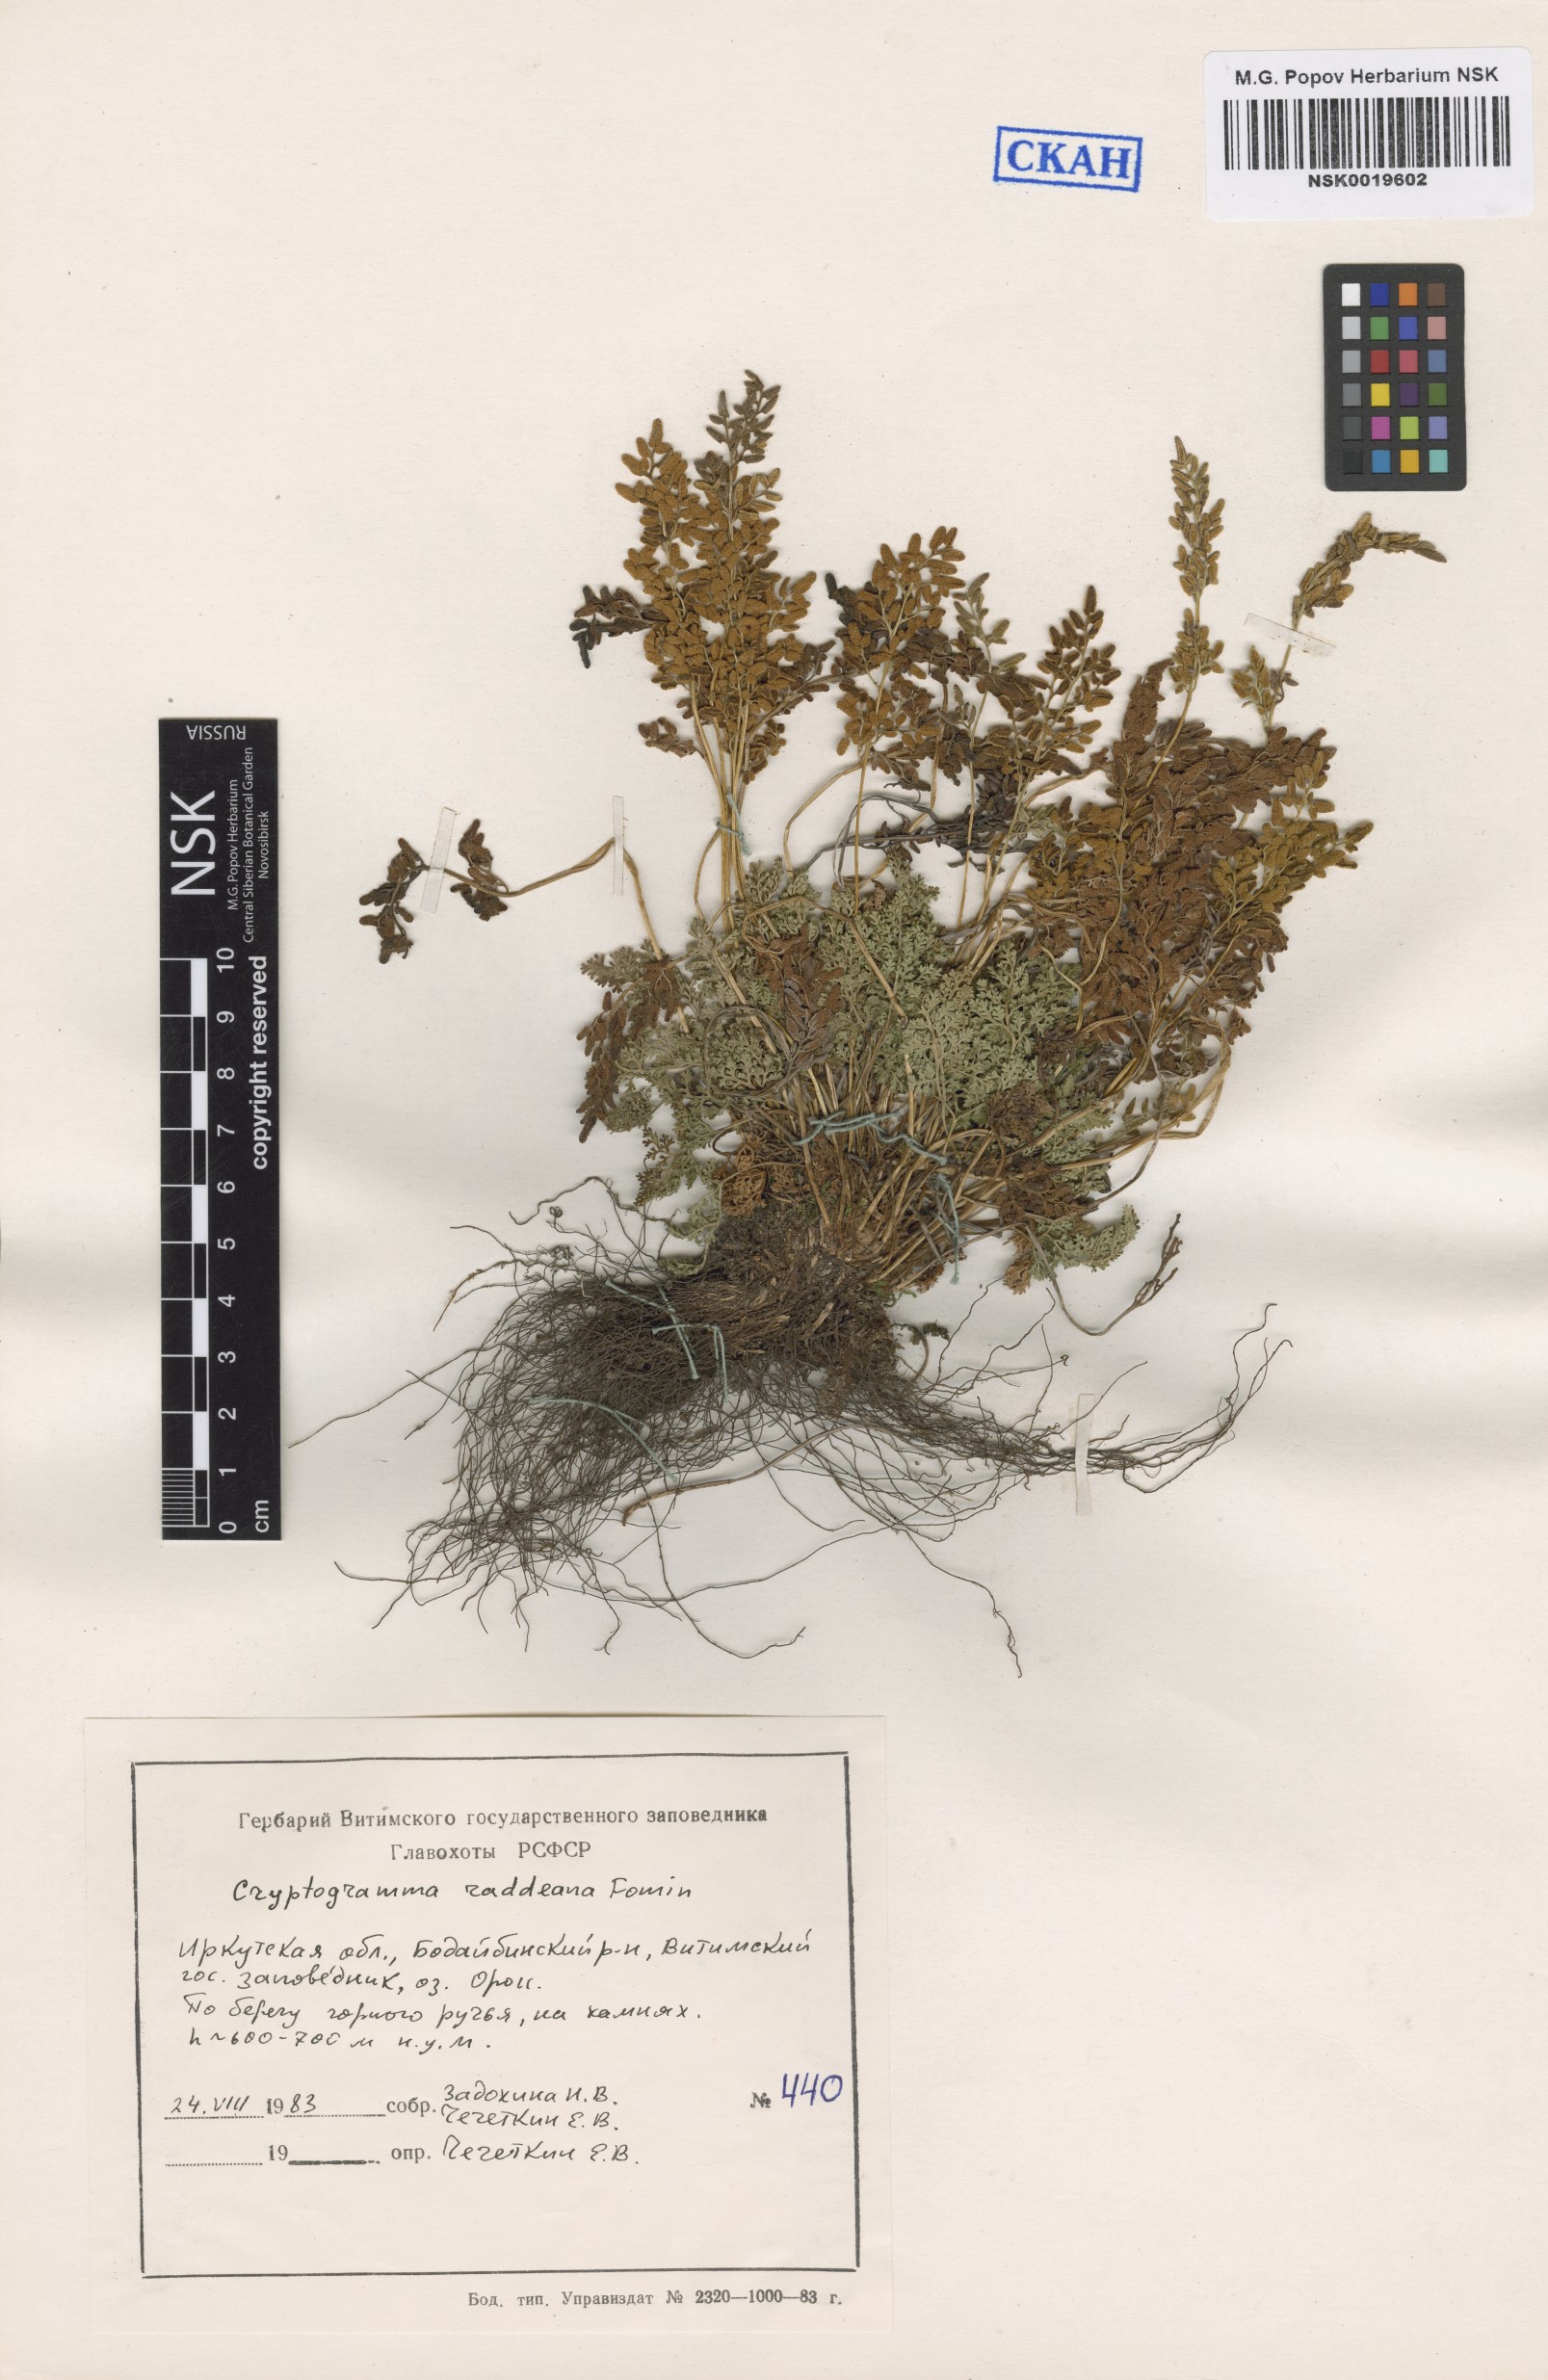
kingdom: Plantae
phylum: Tracheophyta
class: Polypodiopsida
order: Polypodiales
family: Pteridaceae
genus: Cryptogramma
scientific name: Cryptogramma brunoniana
